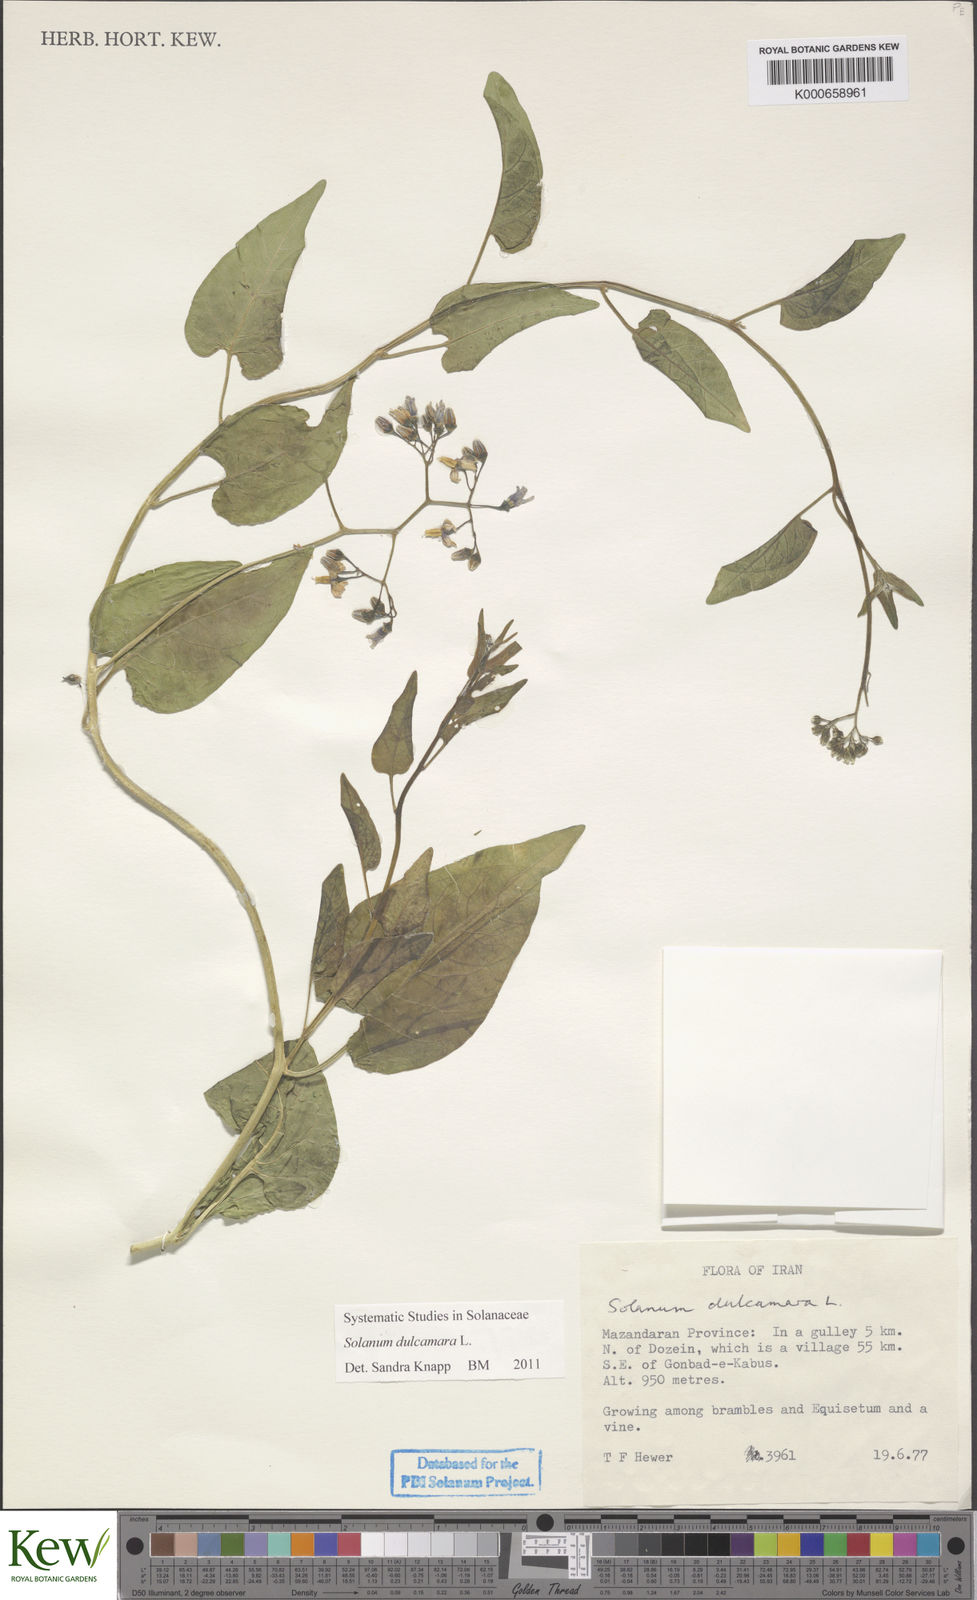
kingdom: Plantae
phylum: Tracheophyta
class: Magnoliopsida
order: Solanales
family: Solanaceae
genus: Solanum
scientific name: Solanum dulcamara
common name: Climbing nightshade
